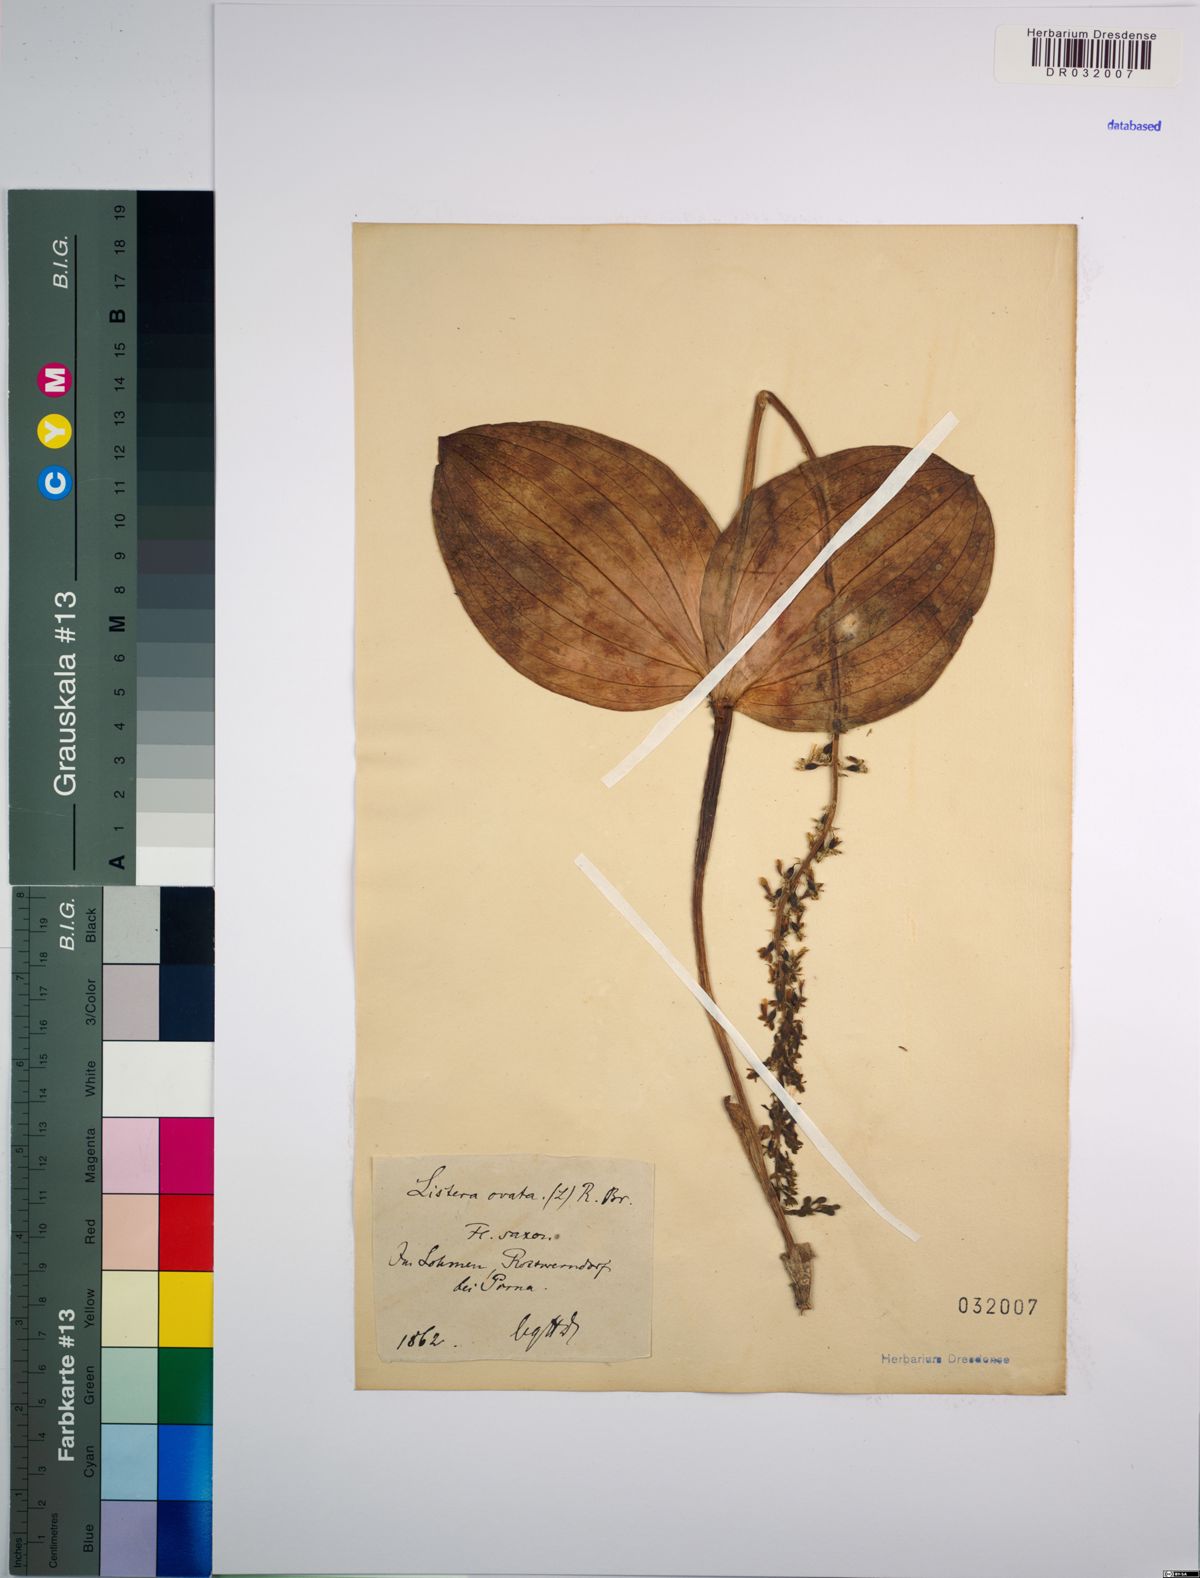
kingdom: Plantae
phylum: Tracheophyta
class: Liliopsida
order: Asparagales
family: Orchidaceae
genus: Neottia
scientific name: Neottia ovata
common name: Common twayblade
